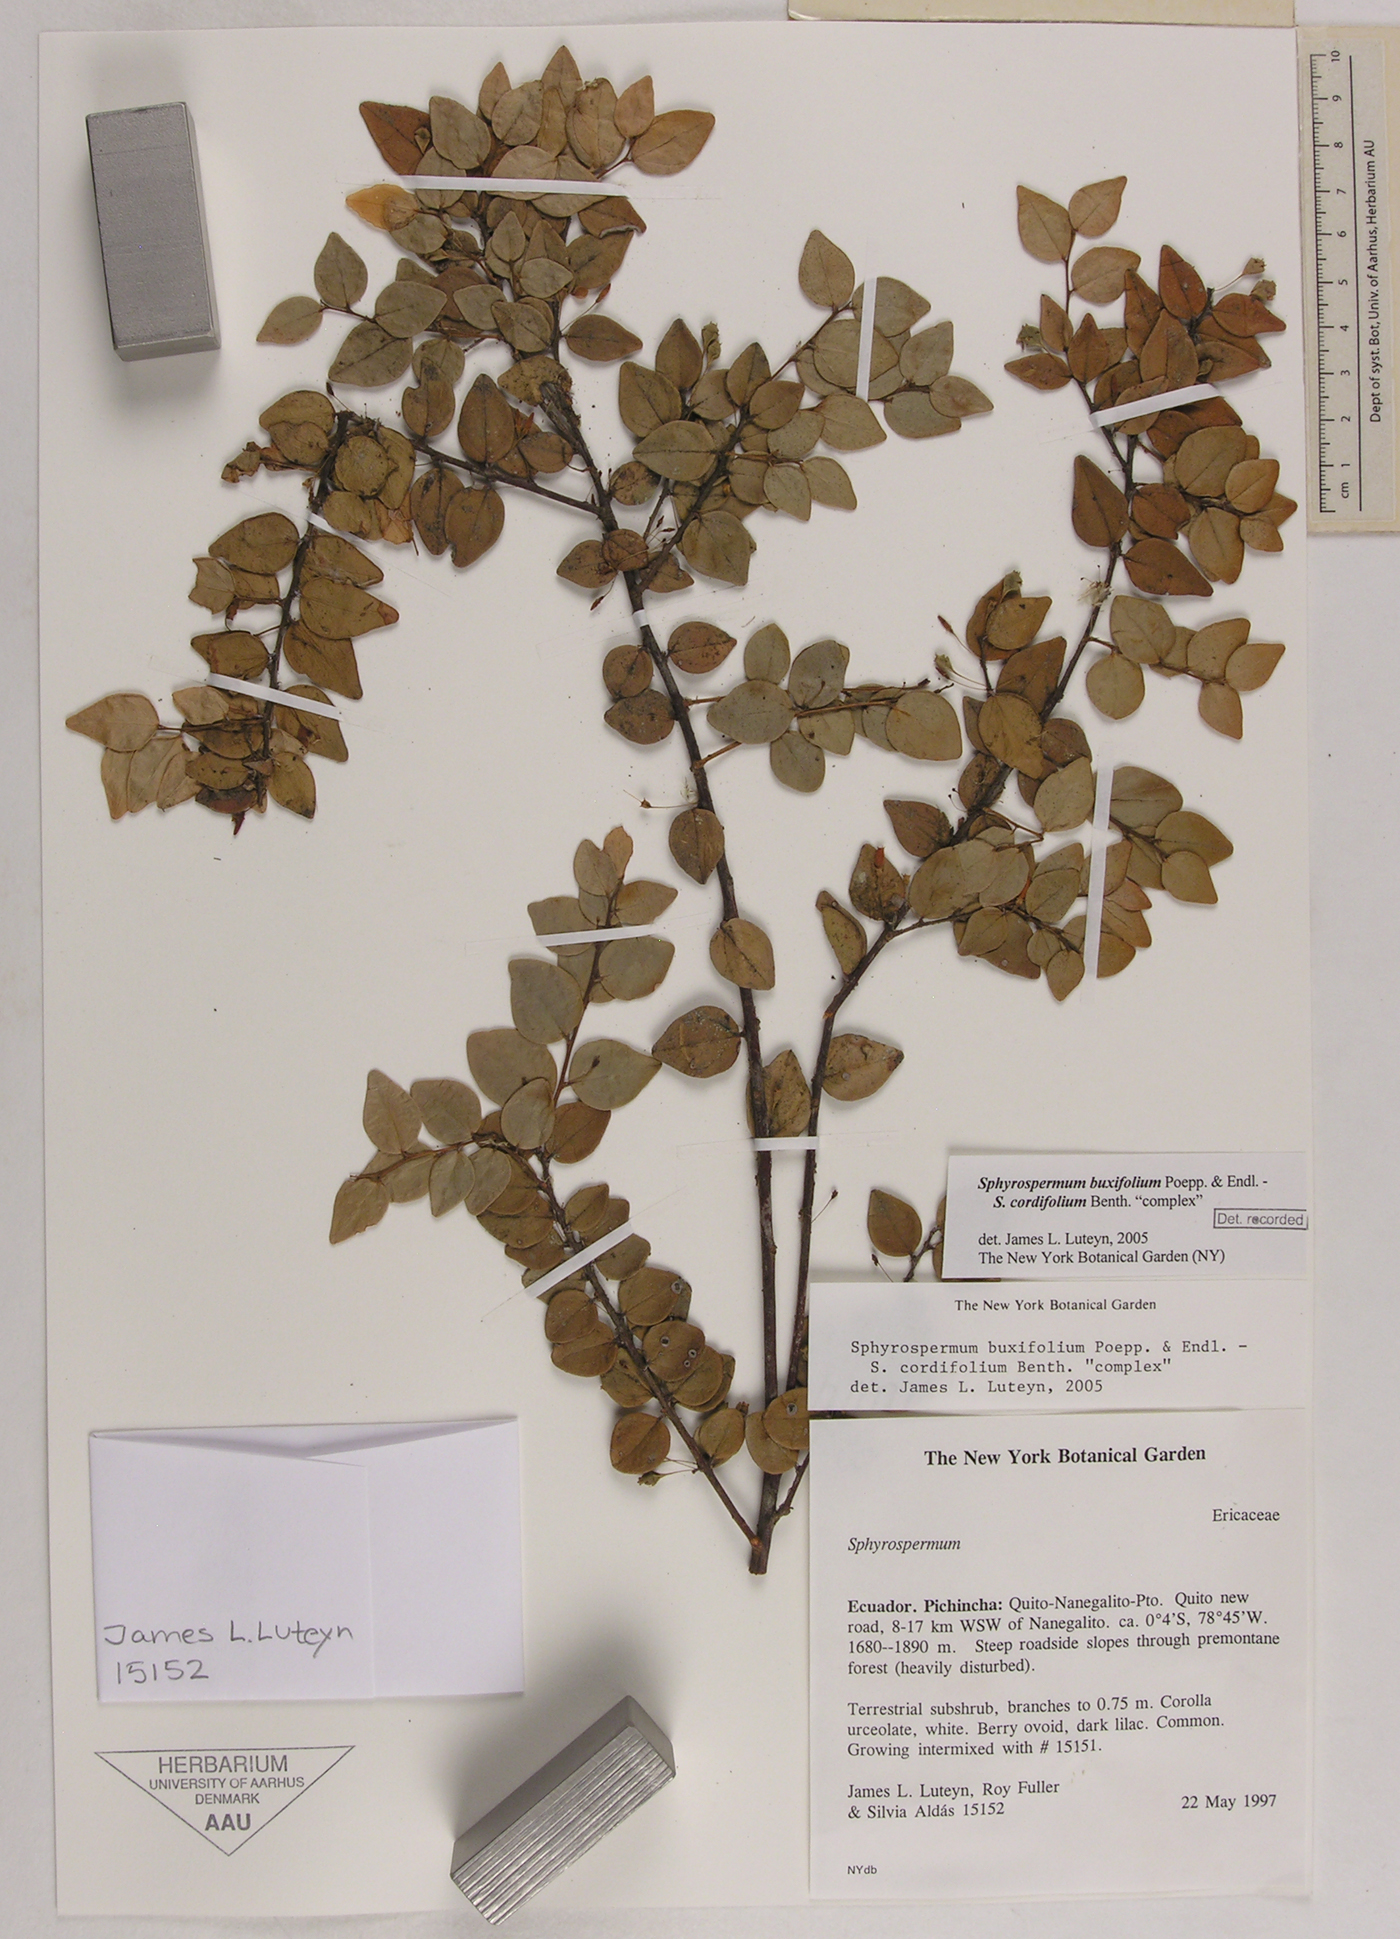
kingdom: Plantae
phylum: Tracheophyta
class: Magnoliopsida
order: Ericales
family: Ericaceae
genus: Sphyrospermum
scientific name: Sphyrospermum buxifolium
